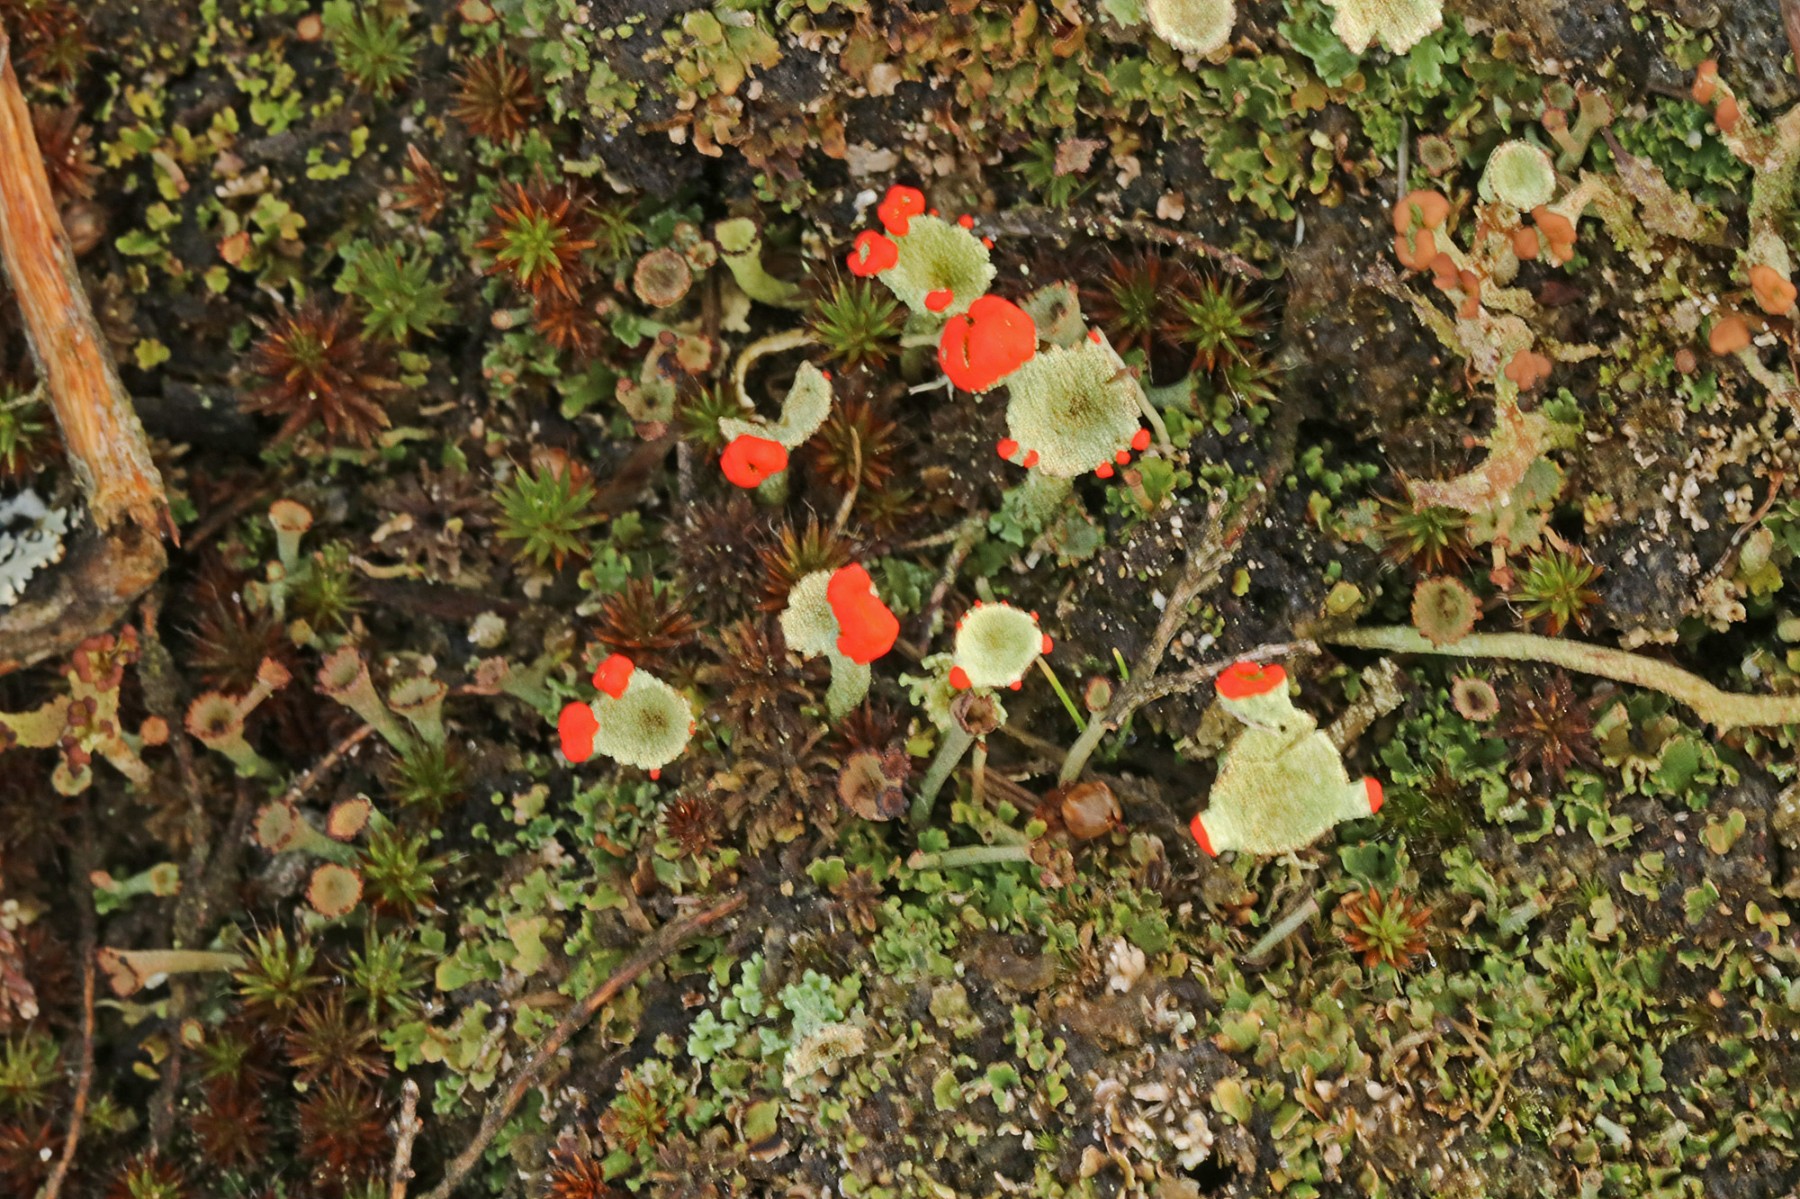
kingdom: Fungi
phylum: Ascomycota
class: Lecanoromycetes
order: Lecanorales
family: Cladoniaceae
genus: Cladonia
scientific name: Cladonia diversa
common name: rød bægerlav
